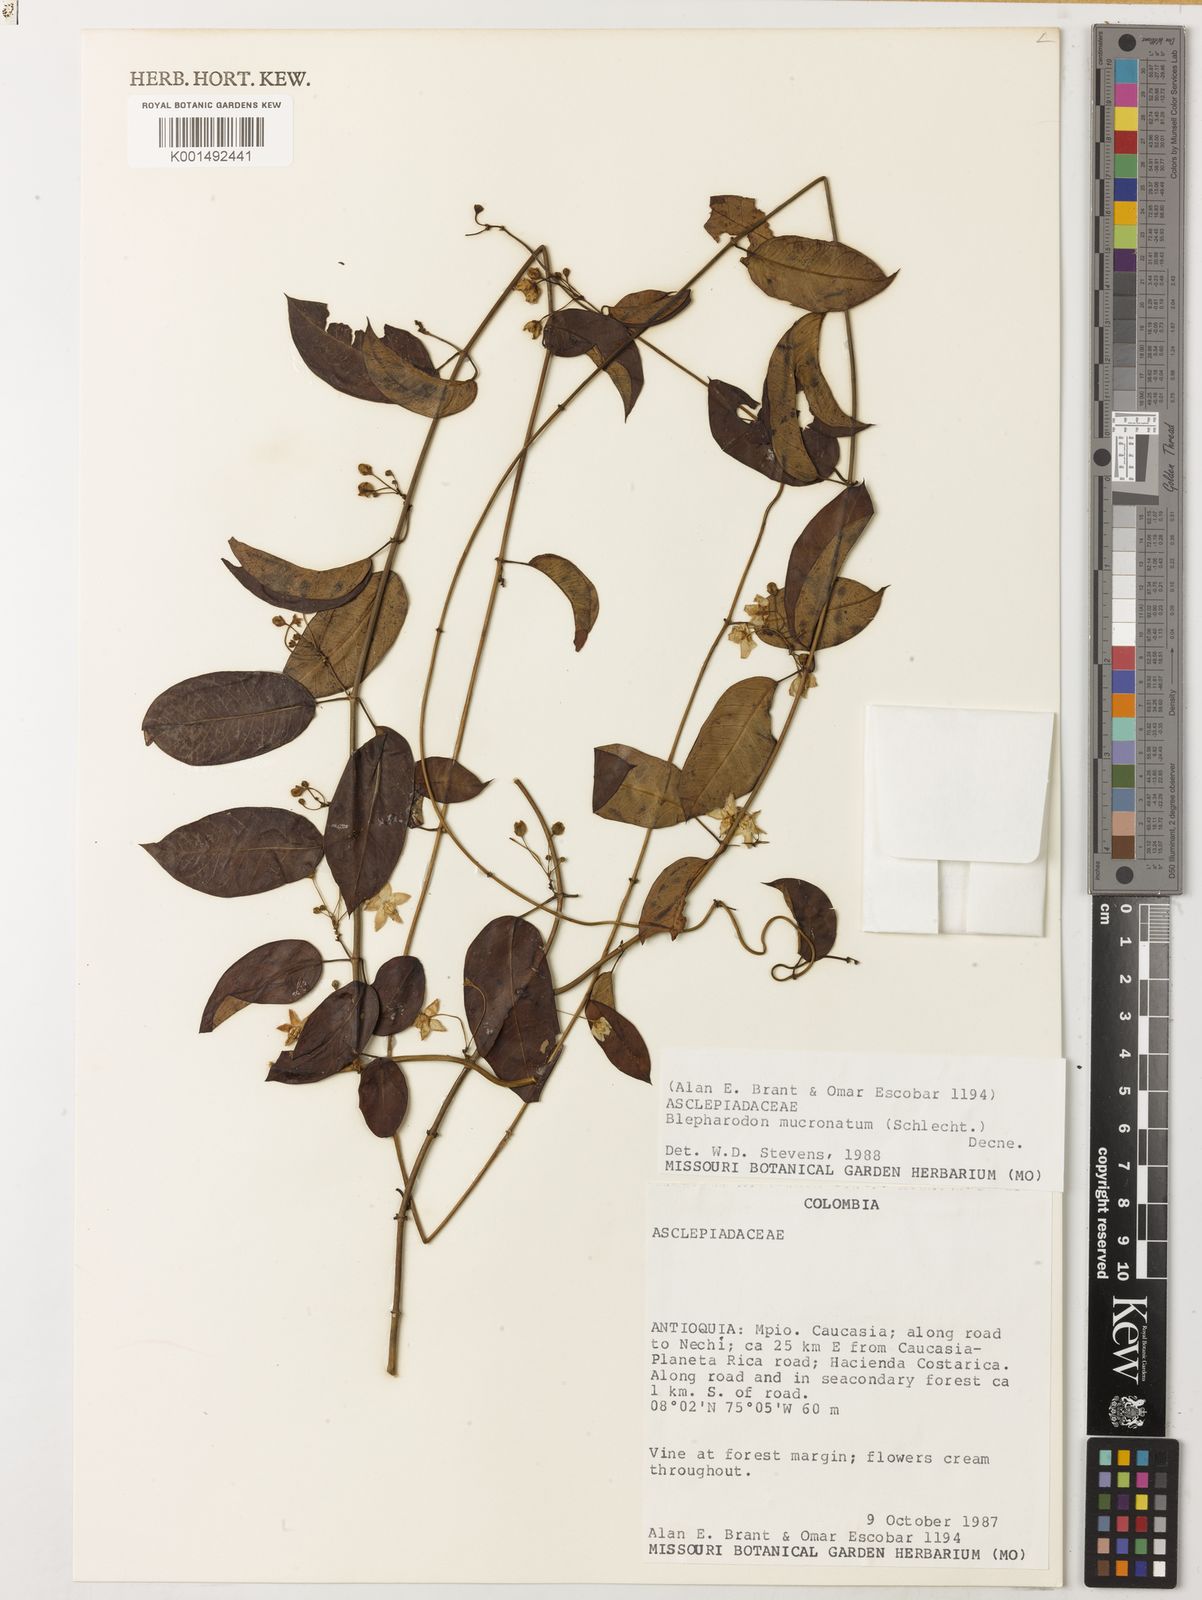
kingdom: Plantae
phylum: Tracheophyta
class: Magnoliopsida
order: Gentianales
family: Apocynaceae
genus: Vailia
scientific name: Vailia anomala
